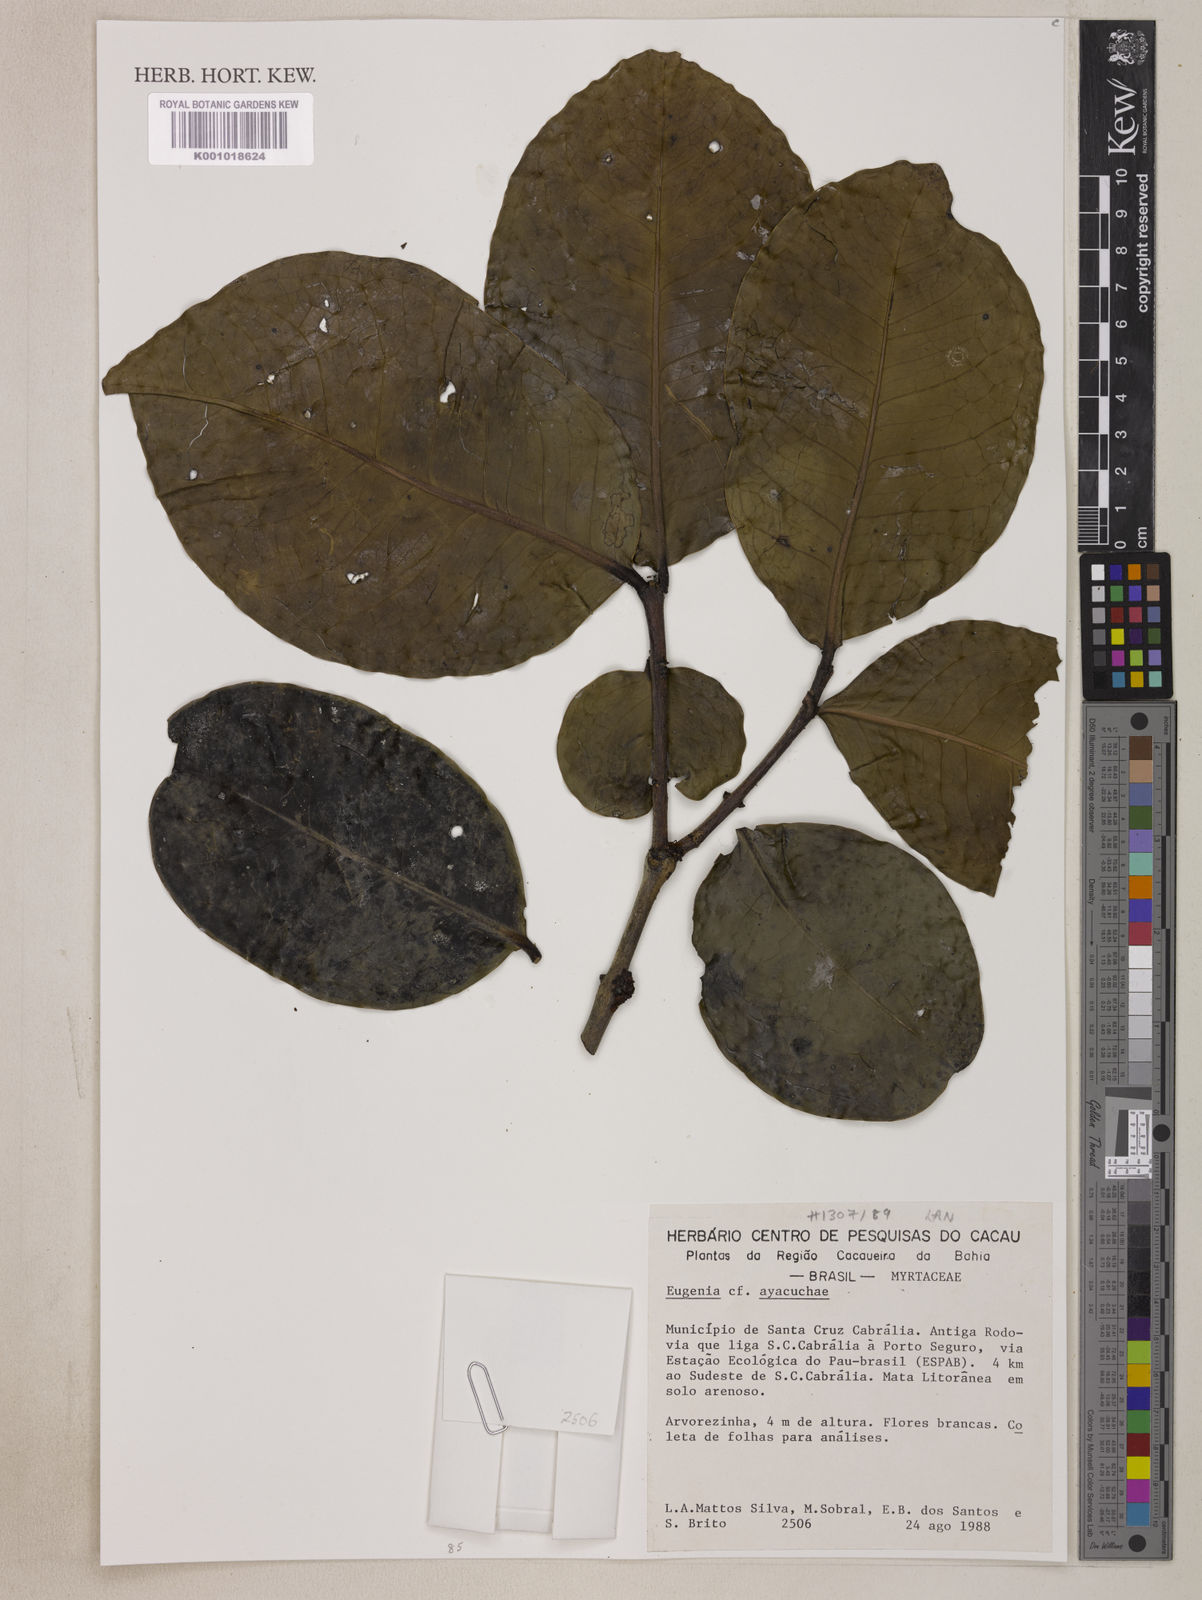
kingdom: Plantae
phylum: Tracheophyta
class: Magnoliopsida
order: Myrtales
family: Myrtaceae
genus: Eugenia
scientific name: Eugenia ayacuchae
